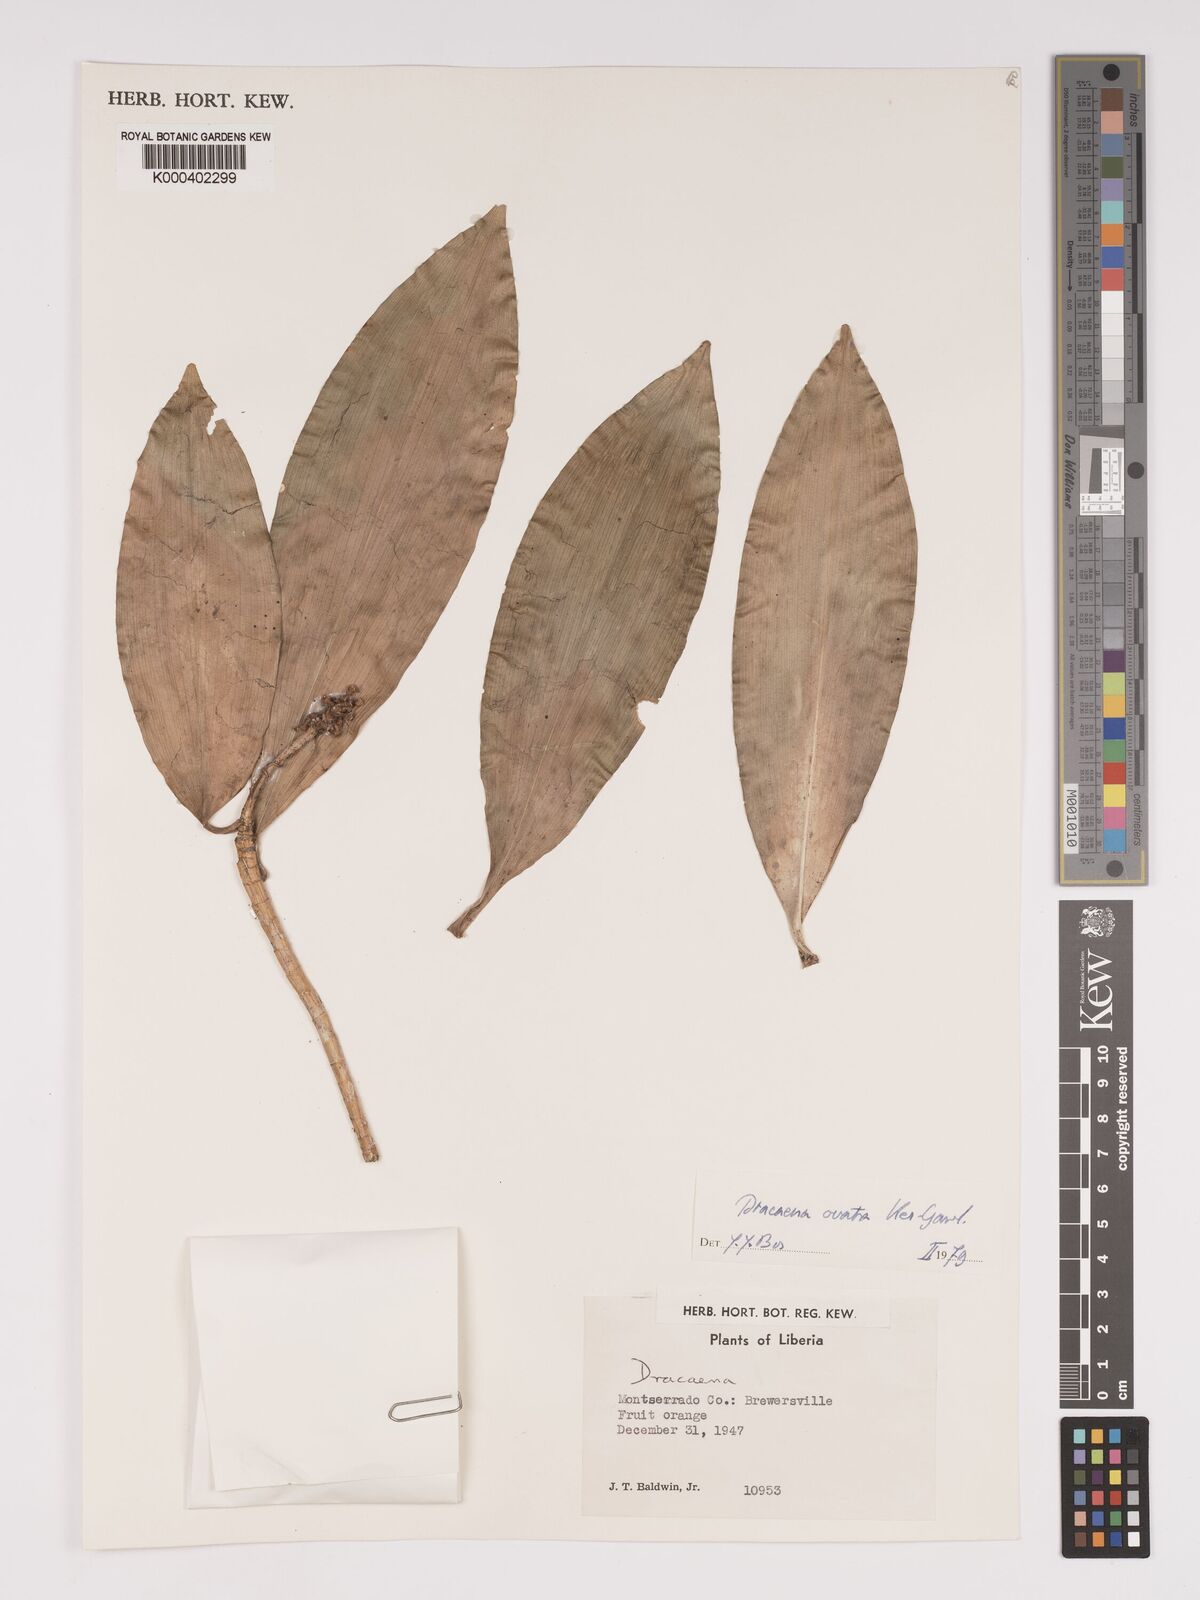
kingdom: Plantae
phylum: Tracheophyta
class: Liliopsida
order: Asparagales
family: Asparagaceae
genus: Dracaena
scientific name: Dracaena ovata
